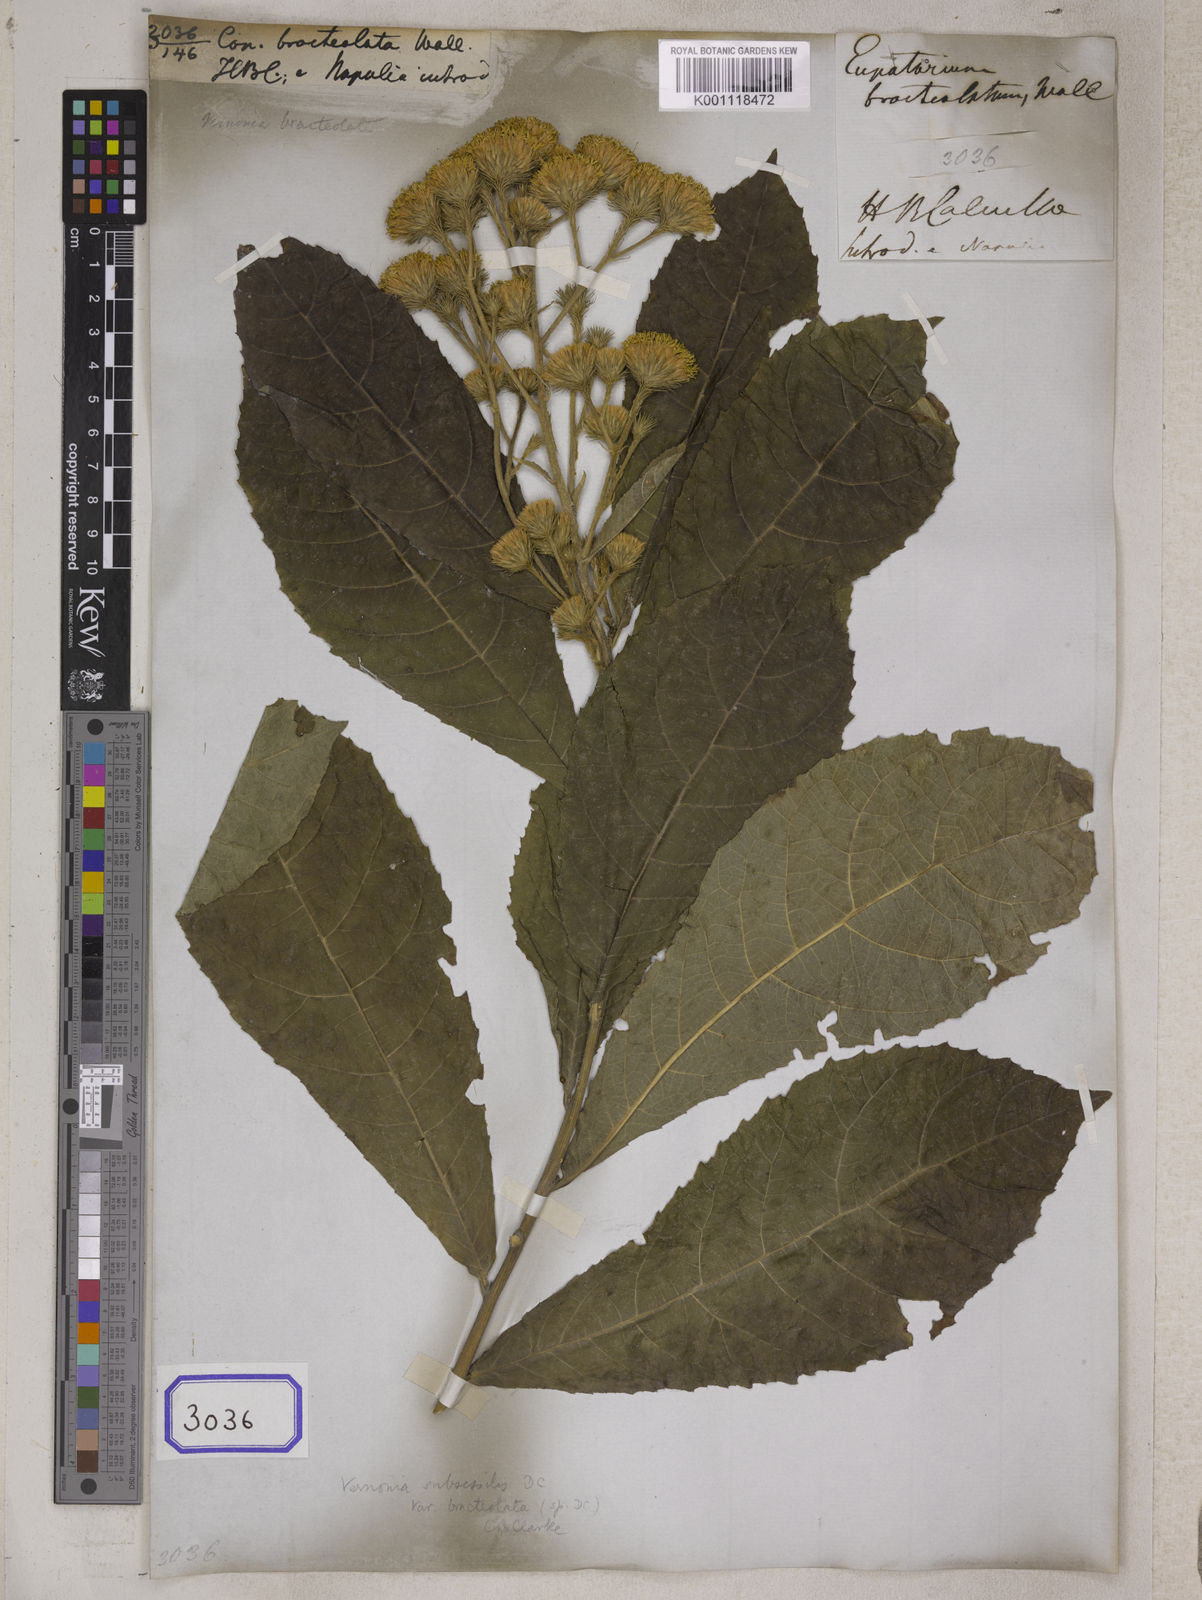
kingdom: Plantae
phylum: Tracheophyta
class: Magnoliopsida
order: Asterales
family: Asteraceae
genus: Khasianthus
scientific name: Khasianthus subsessilis
